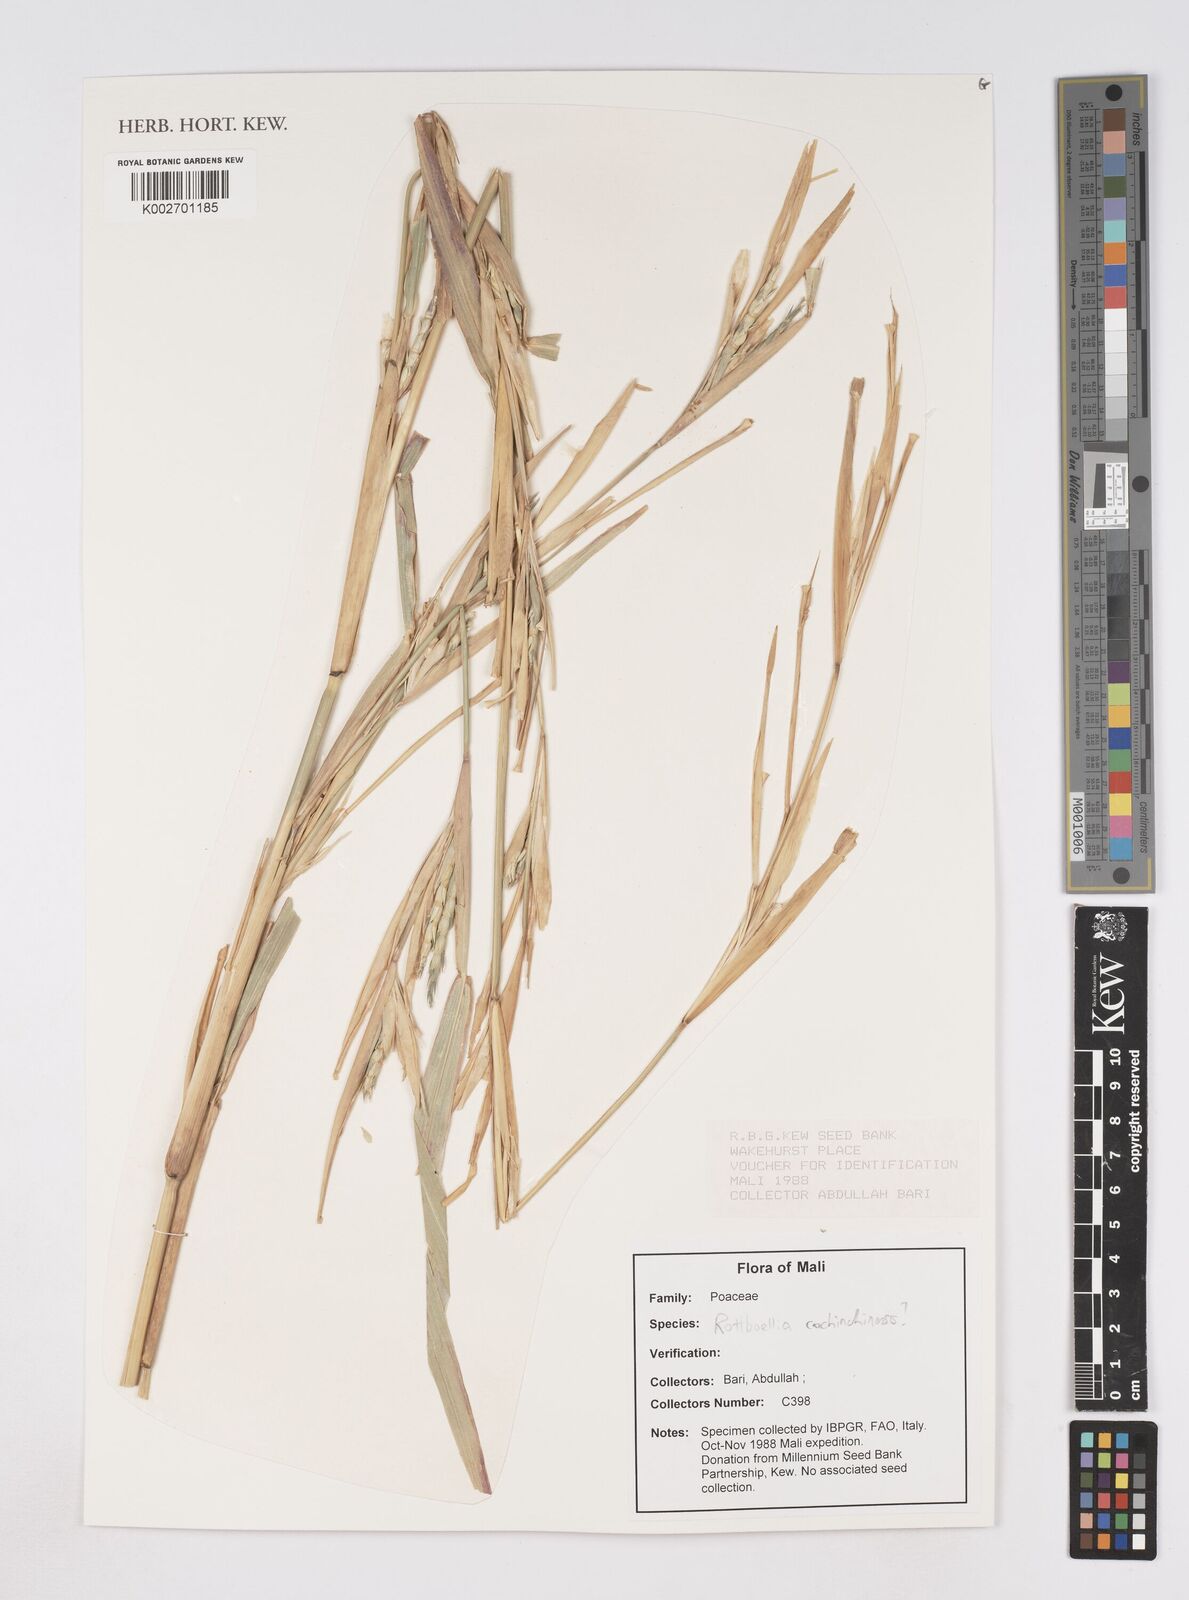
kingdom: Plantae
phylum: Tracheophyta
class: Liliopsida
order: Poales
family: Poaceae
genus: Rottboellia
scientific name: Rottboellia
